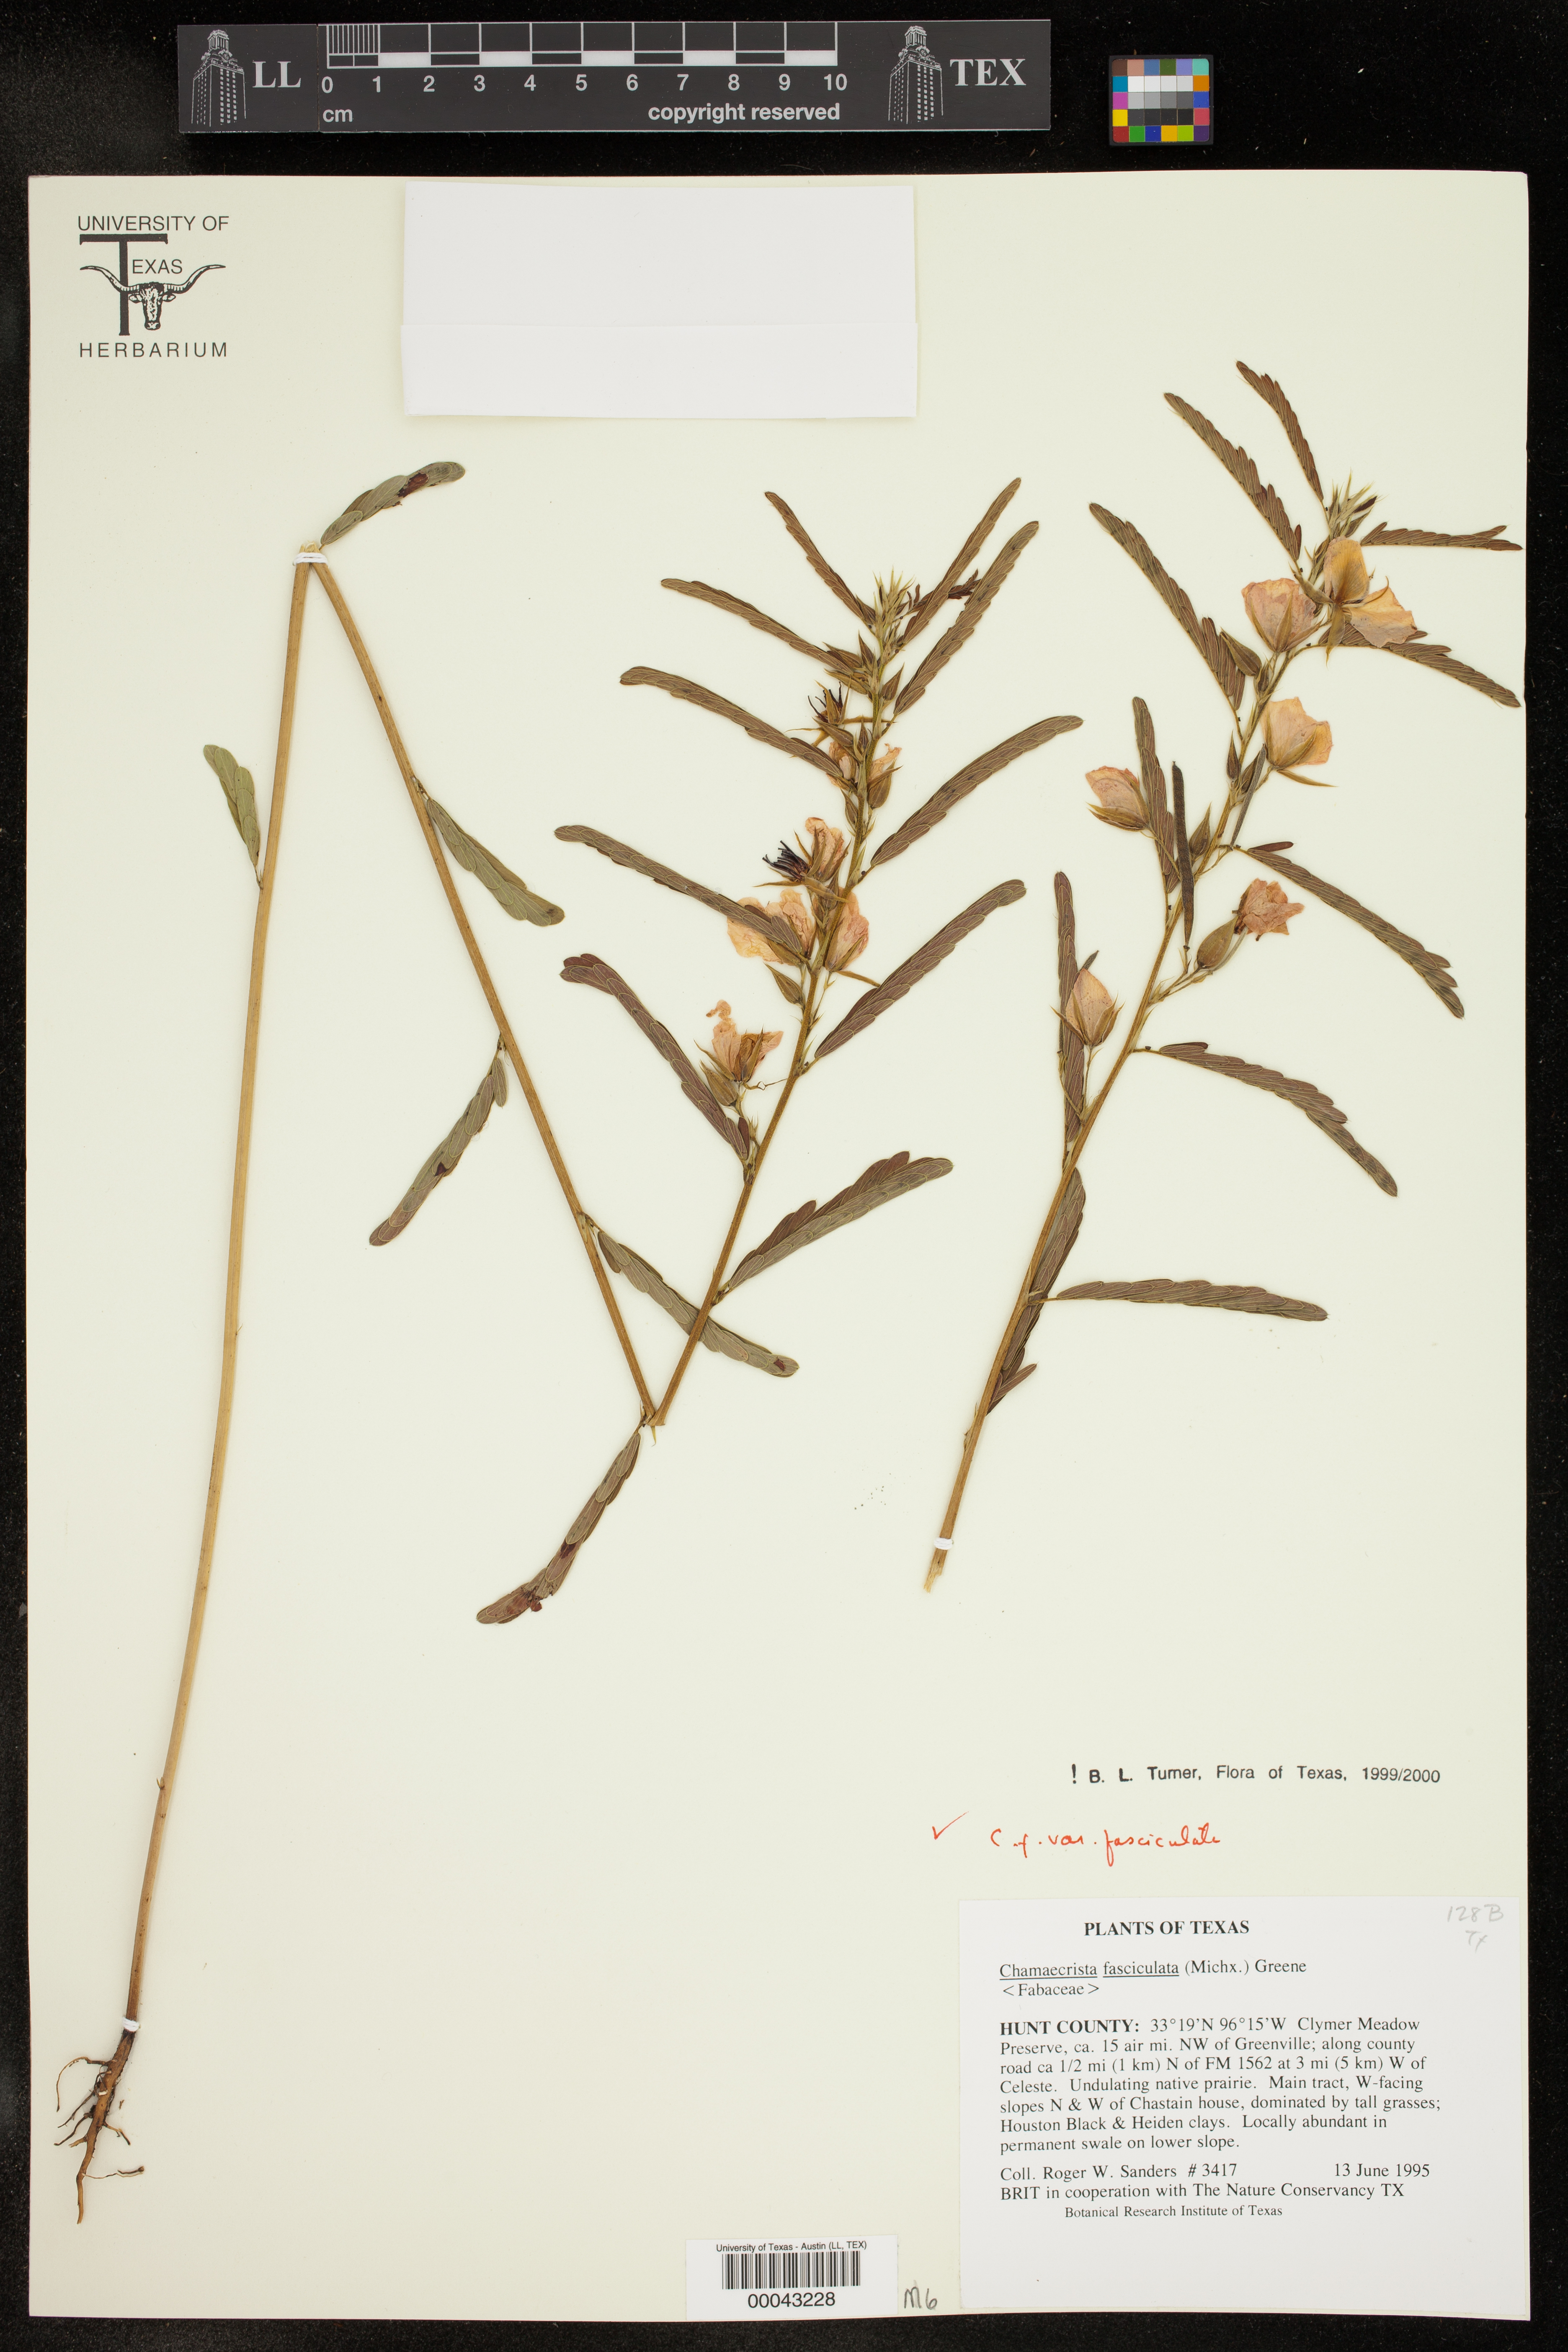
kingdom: Plantae
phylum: Tracheophyta
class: Magnoliopsida
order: Fabales
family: Fabaceae
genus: Chamaecrista
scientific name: Chamaecrista fasciculata
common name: Golden cassia
